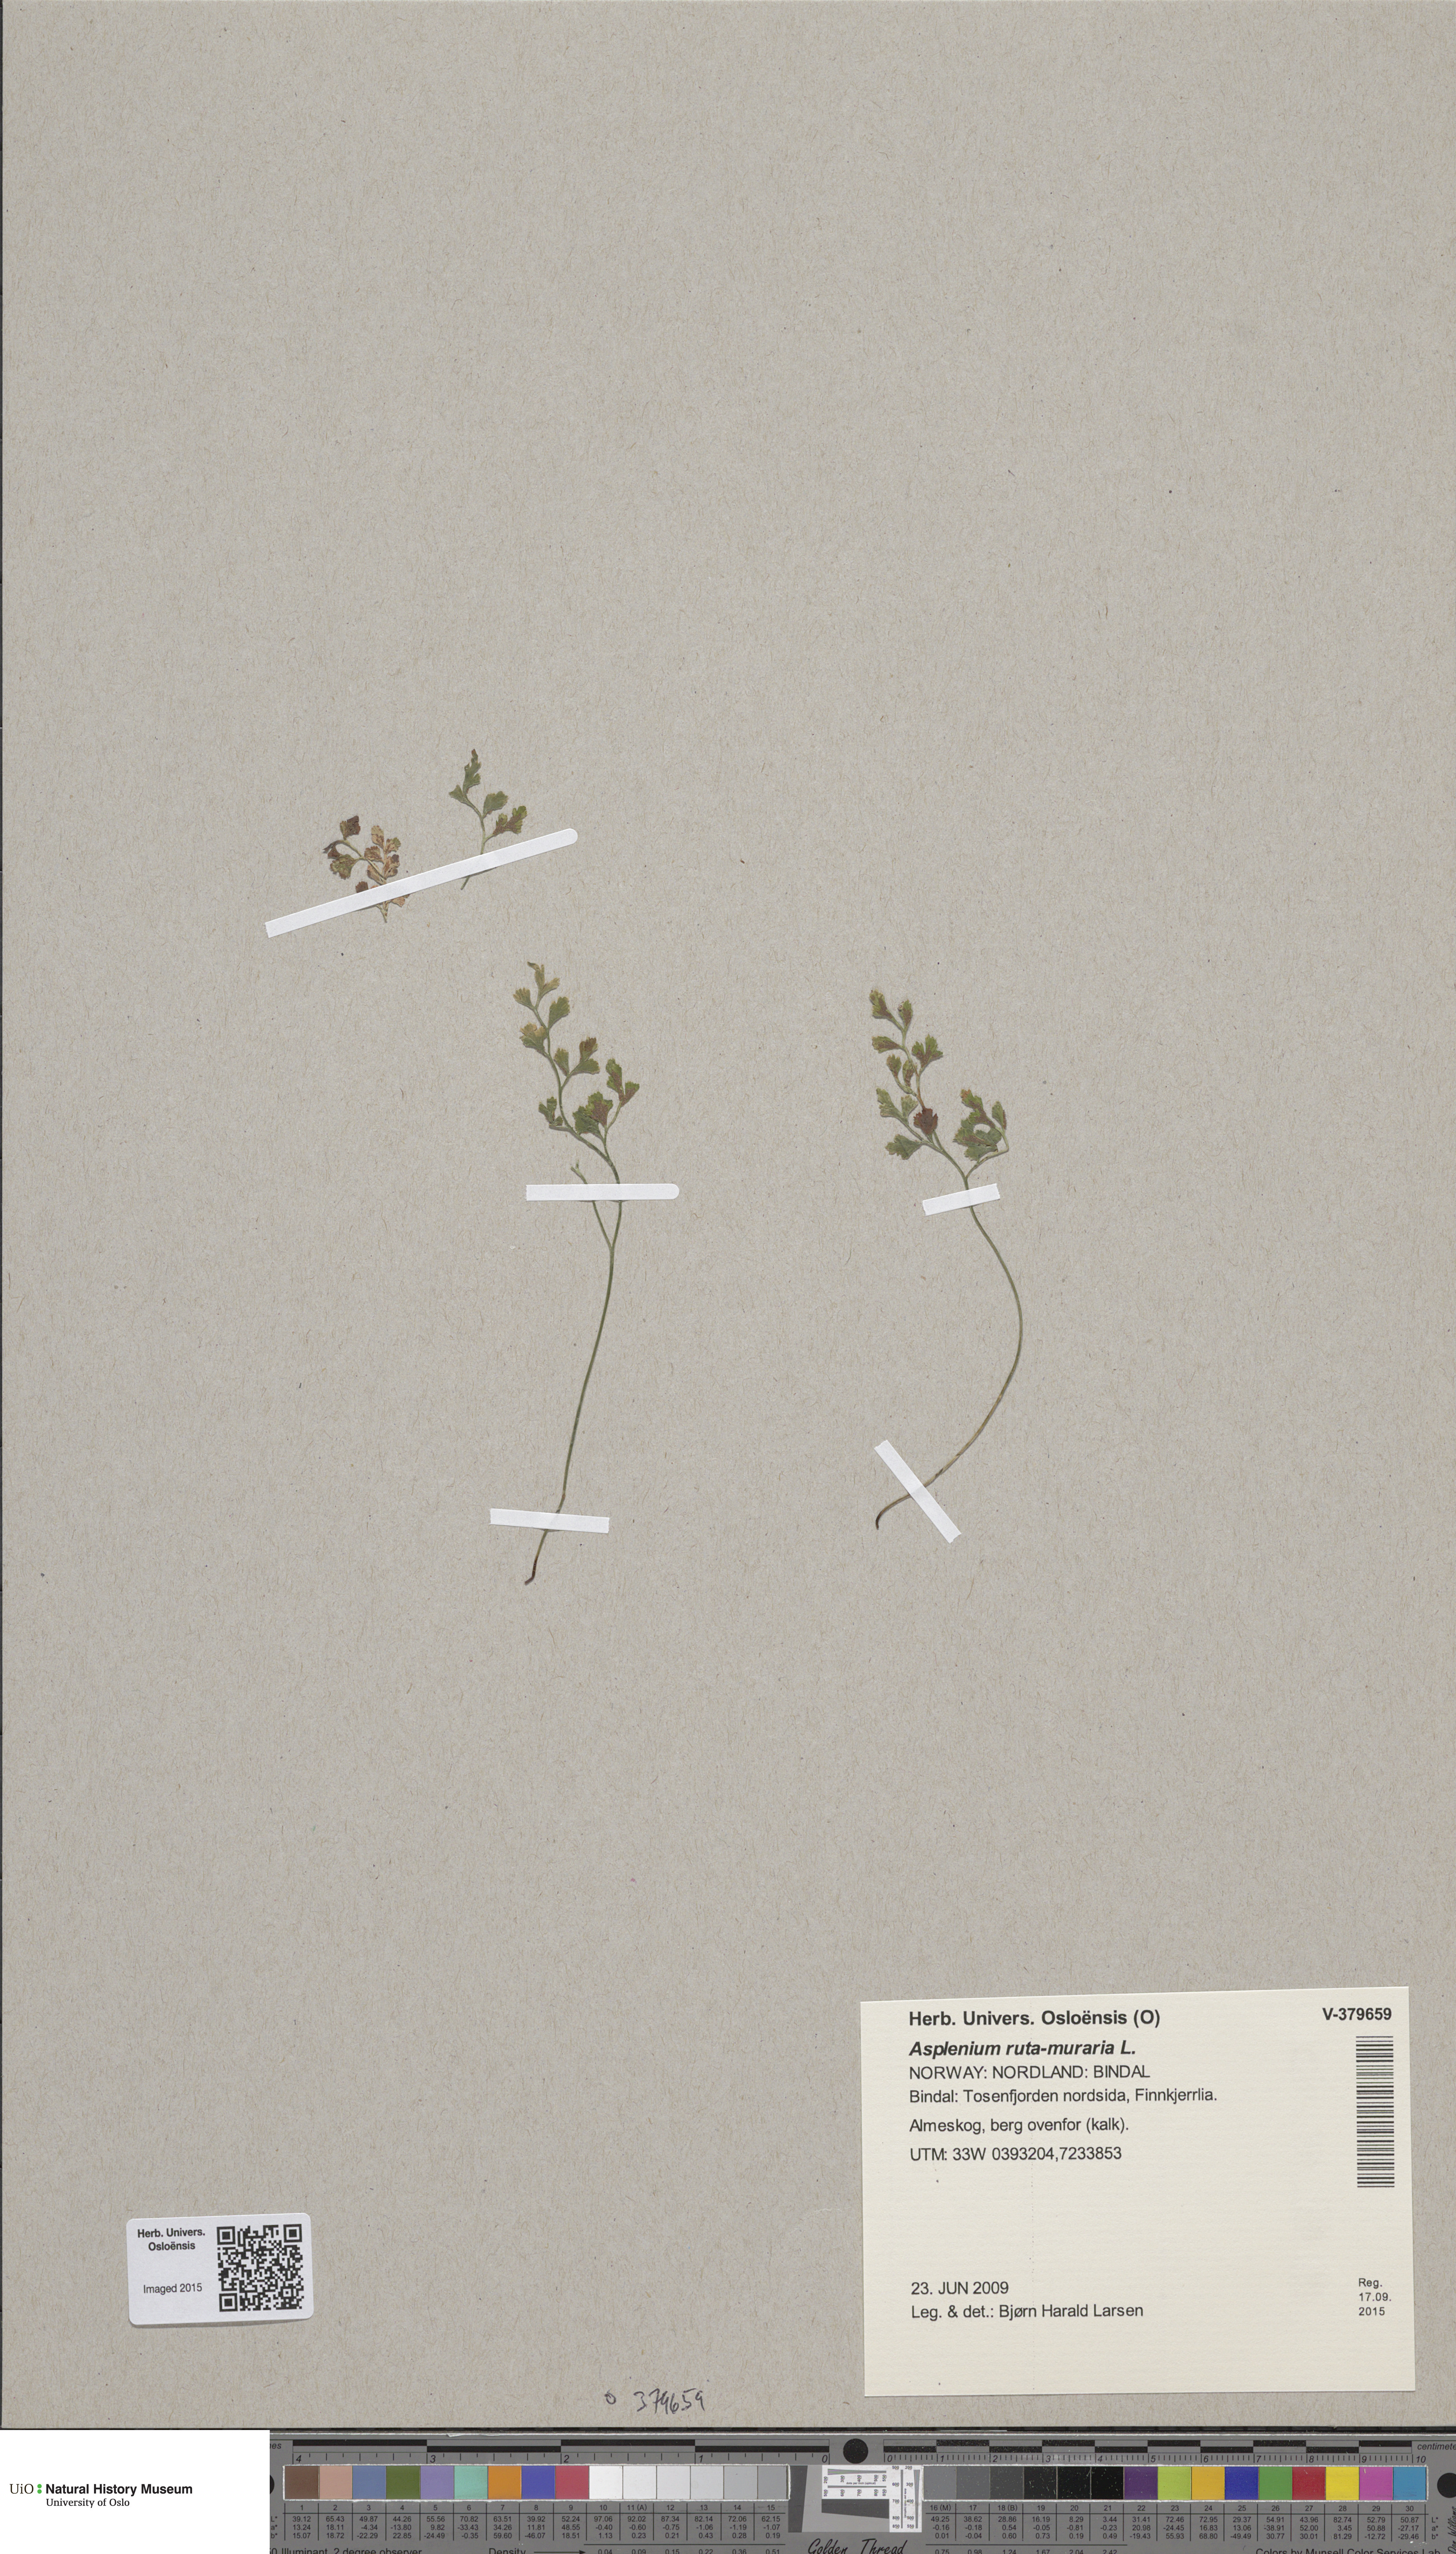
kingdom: Plantae
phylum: Tracheophyta
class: Polypodiopsida
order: Polypodiales
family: Aspleniaceae
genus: Asplenium
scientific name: Asplenium ruta-muraria
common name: Wall-rue
